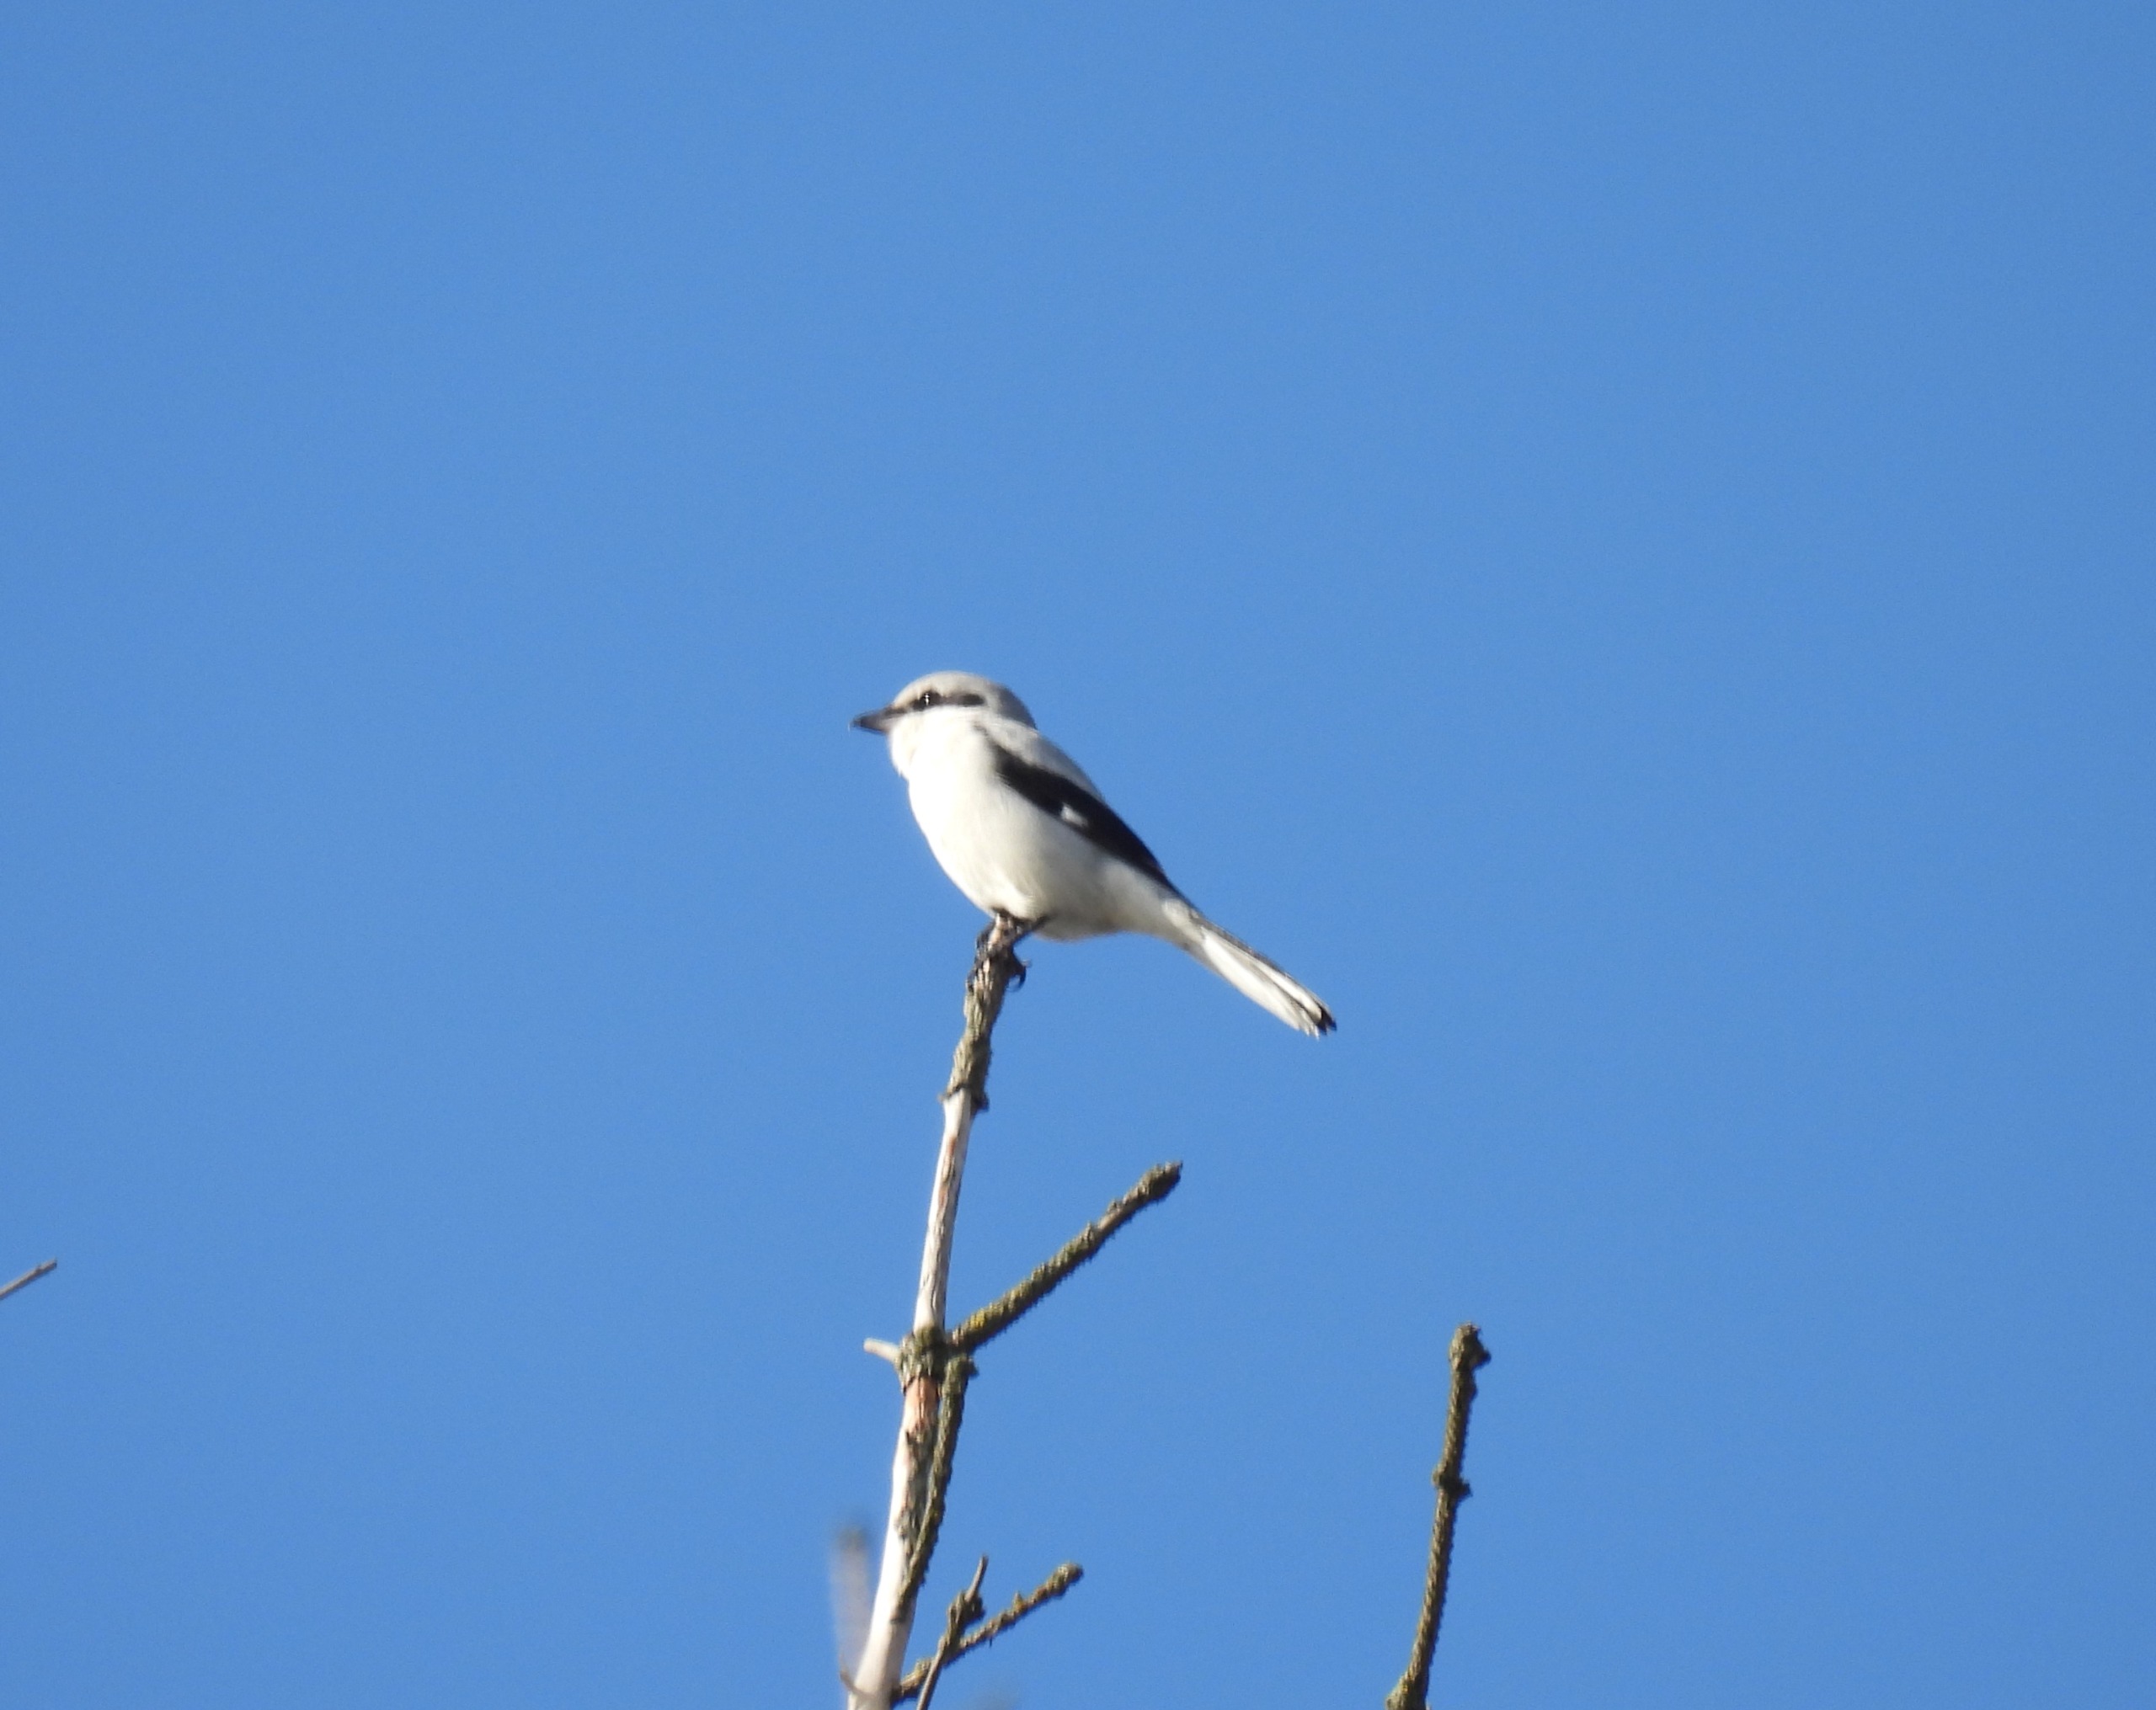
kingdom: Animalia
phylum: Chordata
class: Aves
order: Passeriformes
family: Laniidae
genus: Lanius
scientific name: Lanius excubitor
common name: Stor tornskade
